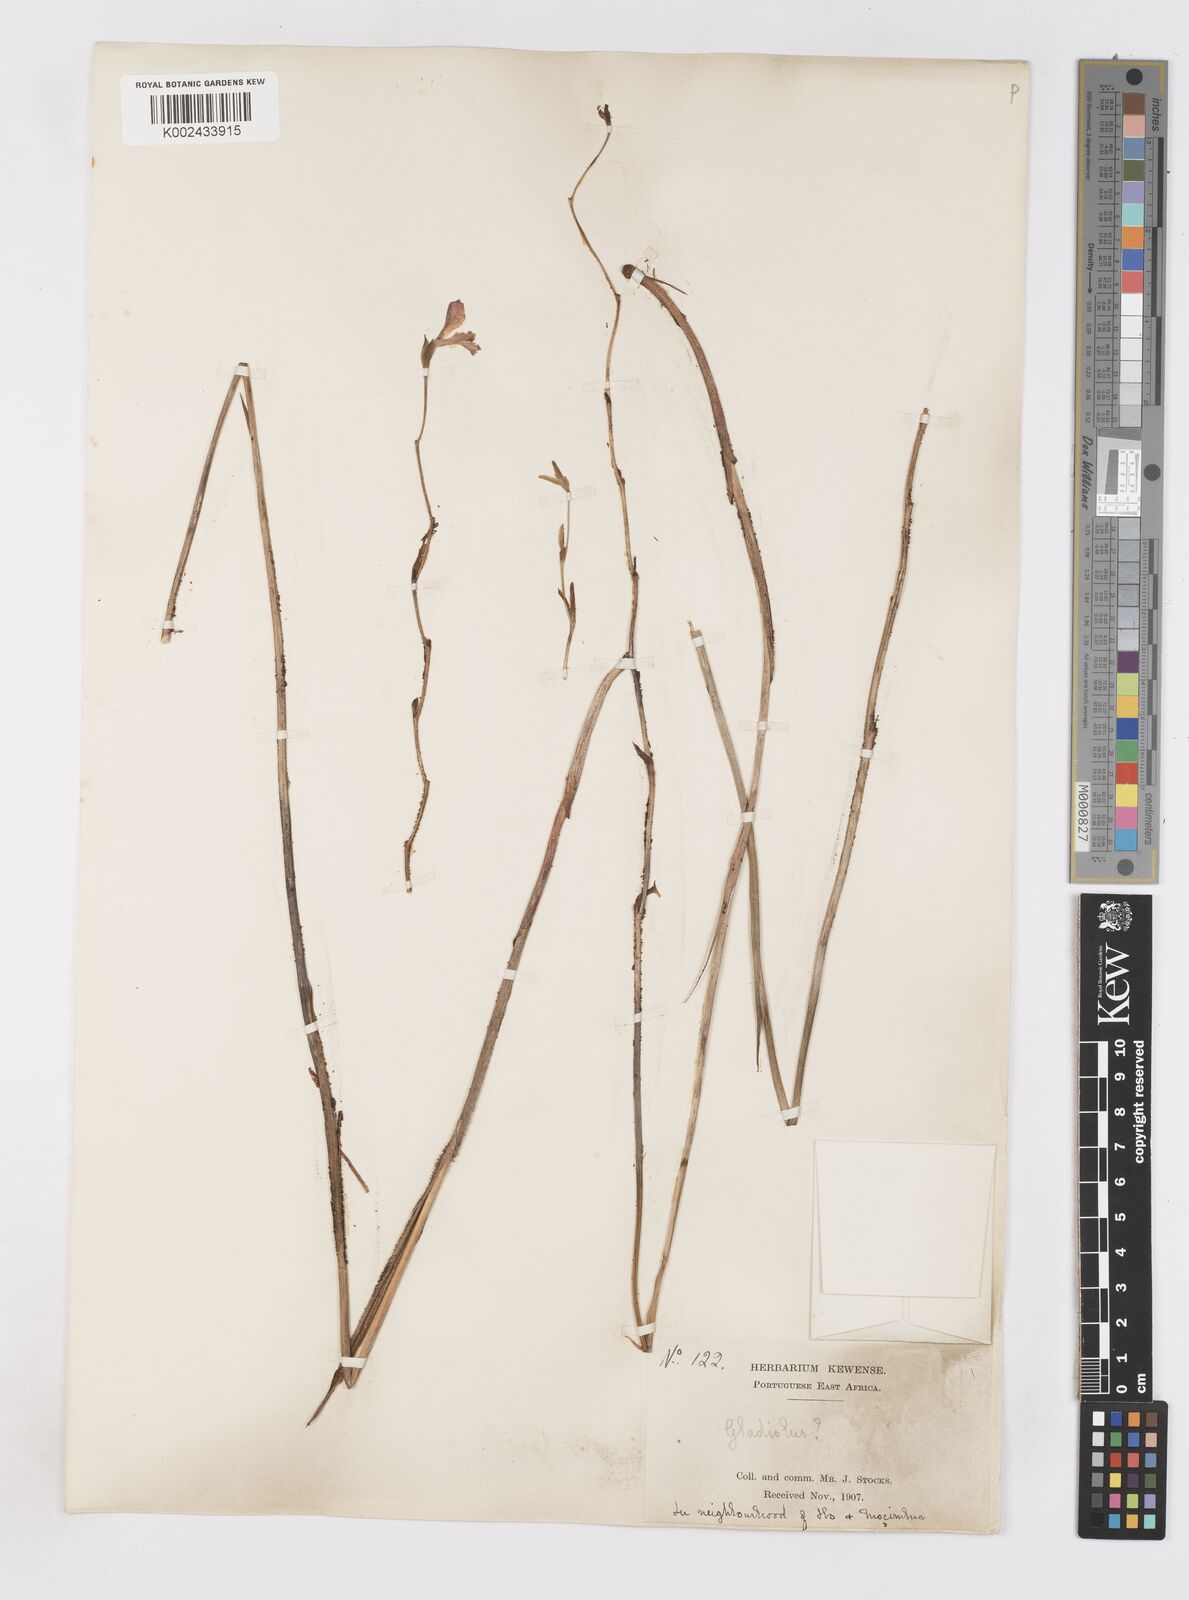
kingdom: Plantae
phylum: Tracheophyta
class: Liliopsida
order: Asparagales
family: Iridaceae
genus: Gladiolus
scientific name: Gladiolus atropurpureus
